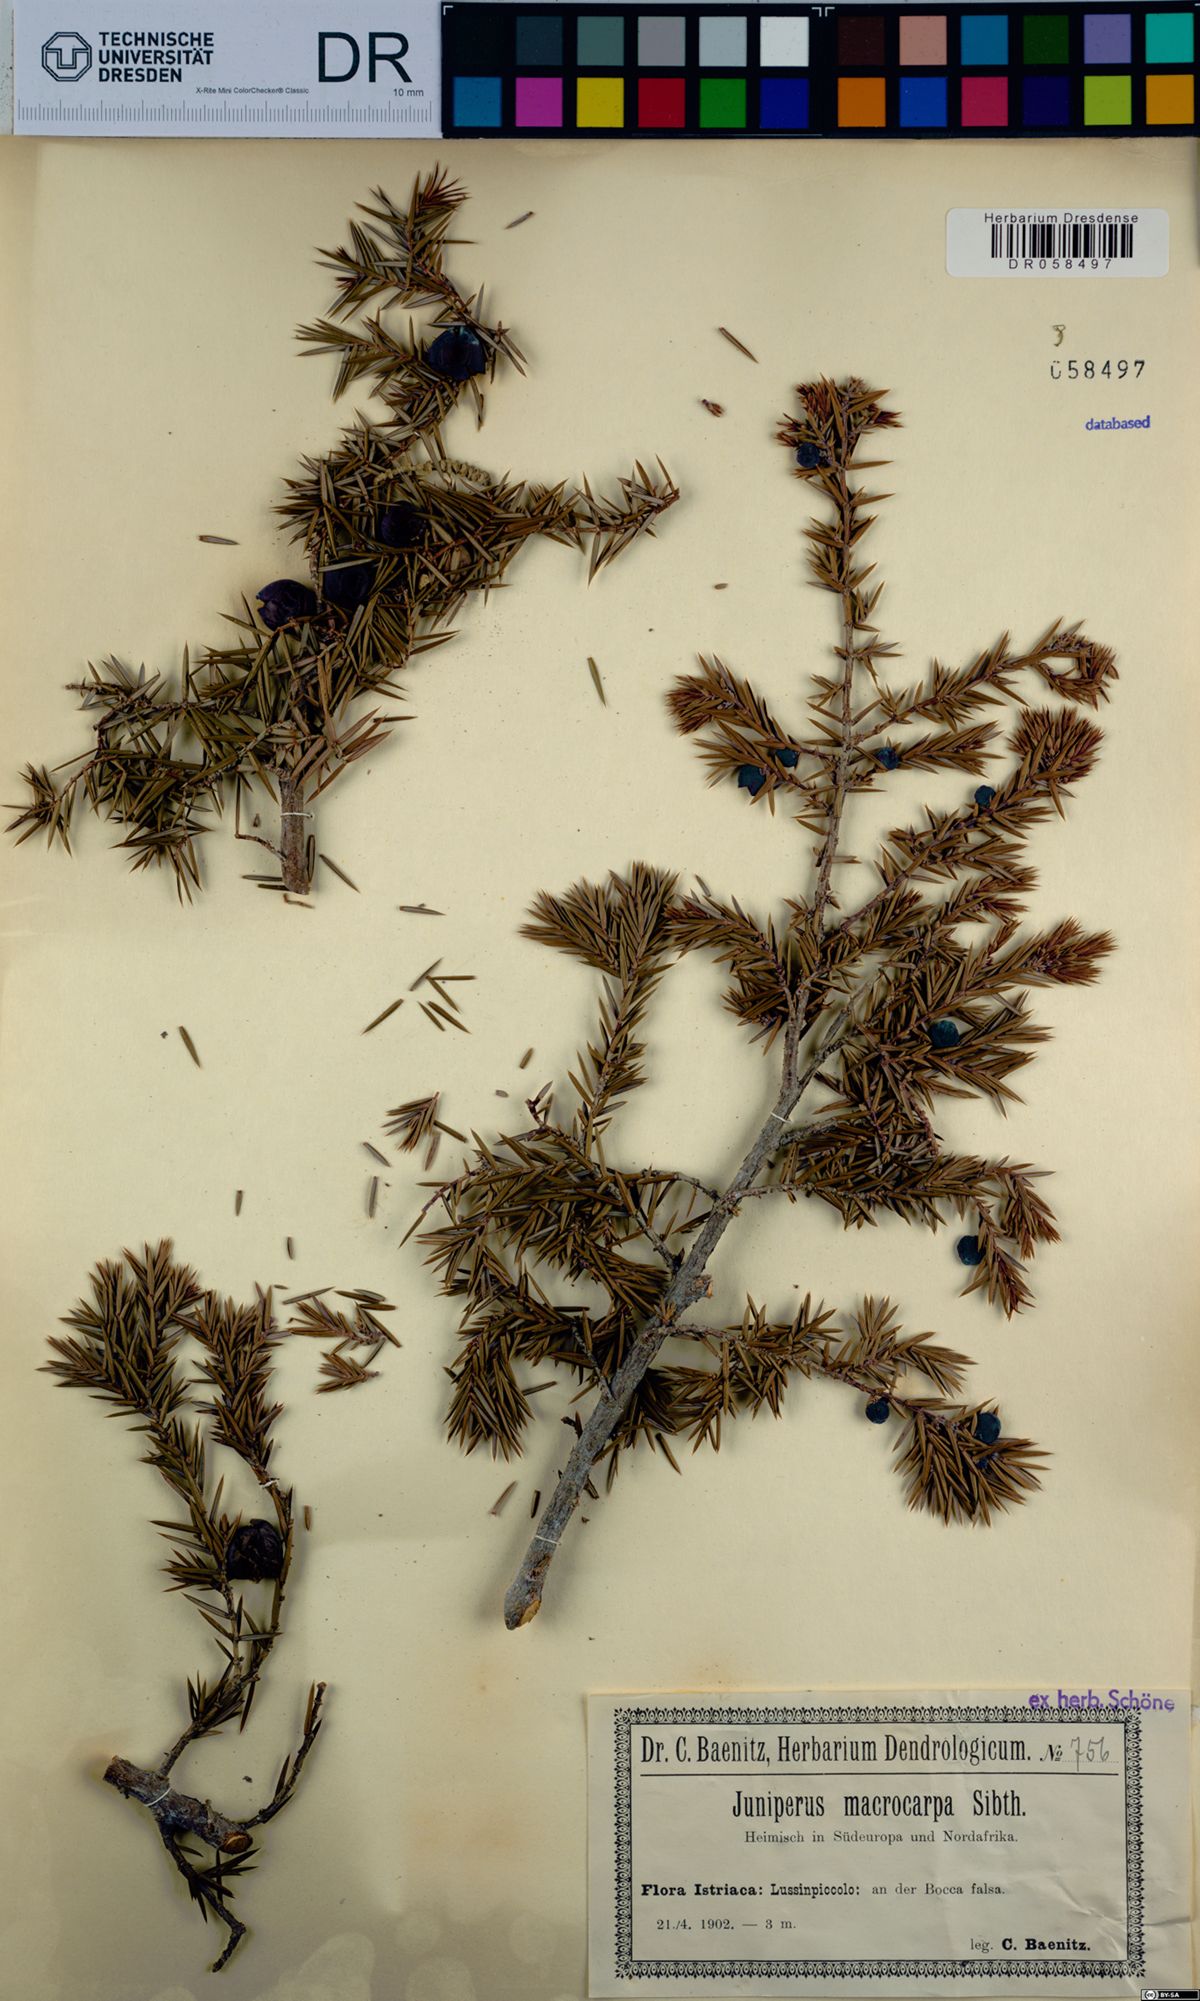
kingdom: Plantae
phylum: Tracheophyta
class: Pinopsida
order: Pinales
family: Cupressaceae
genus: Juniperus
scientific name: Juniperus oxycedrus
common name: Prickly juniper
